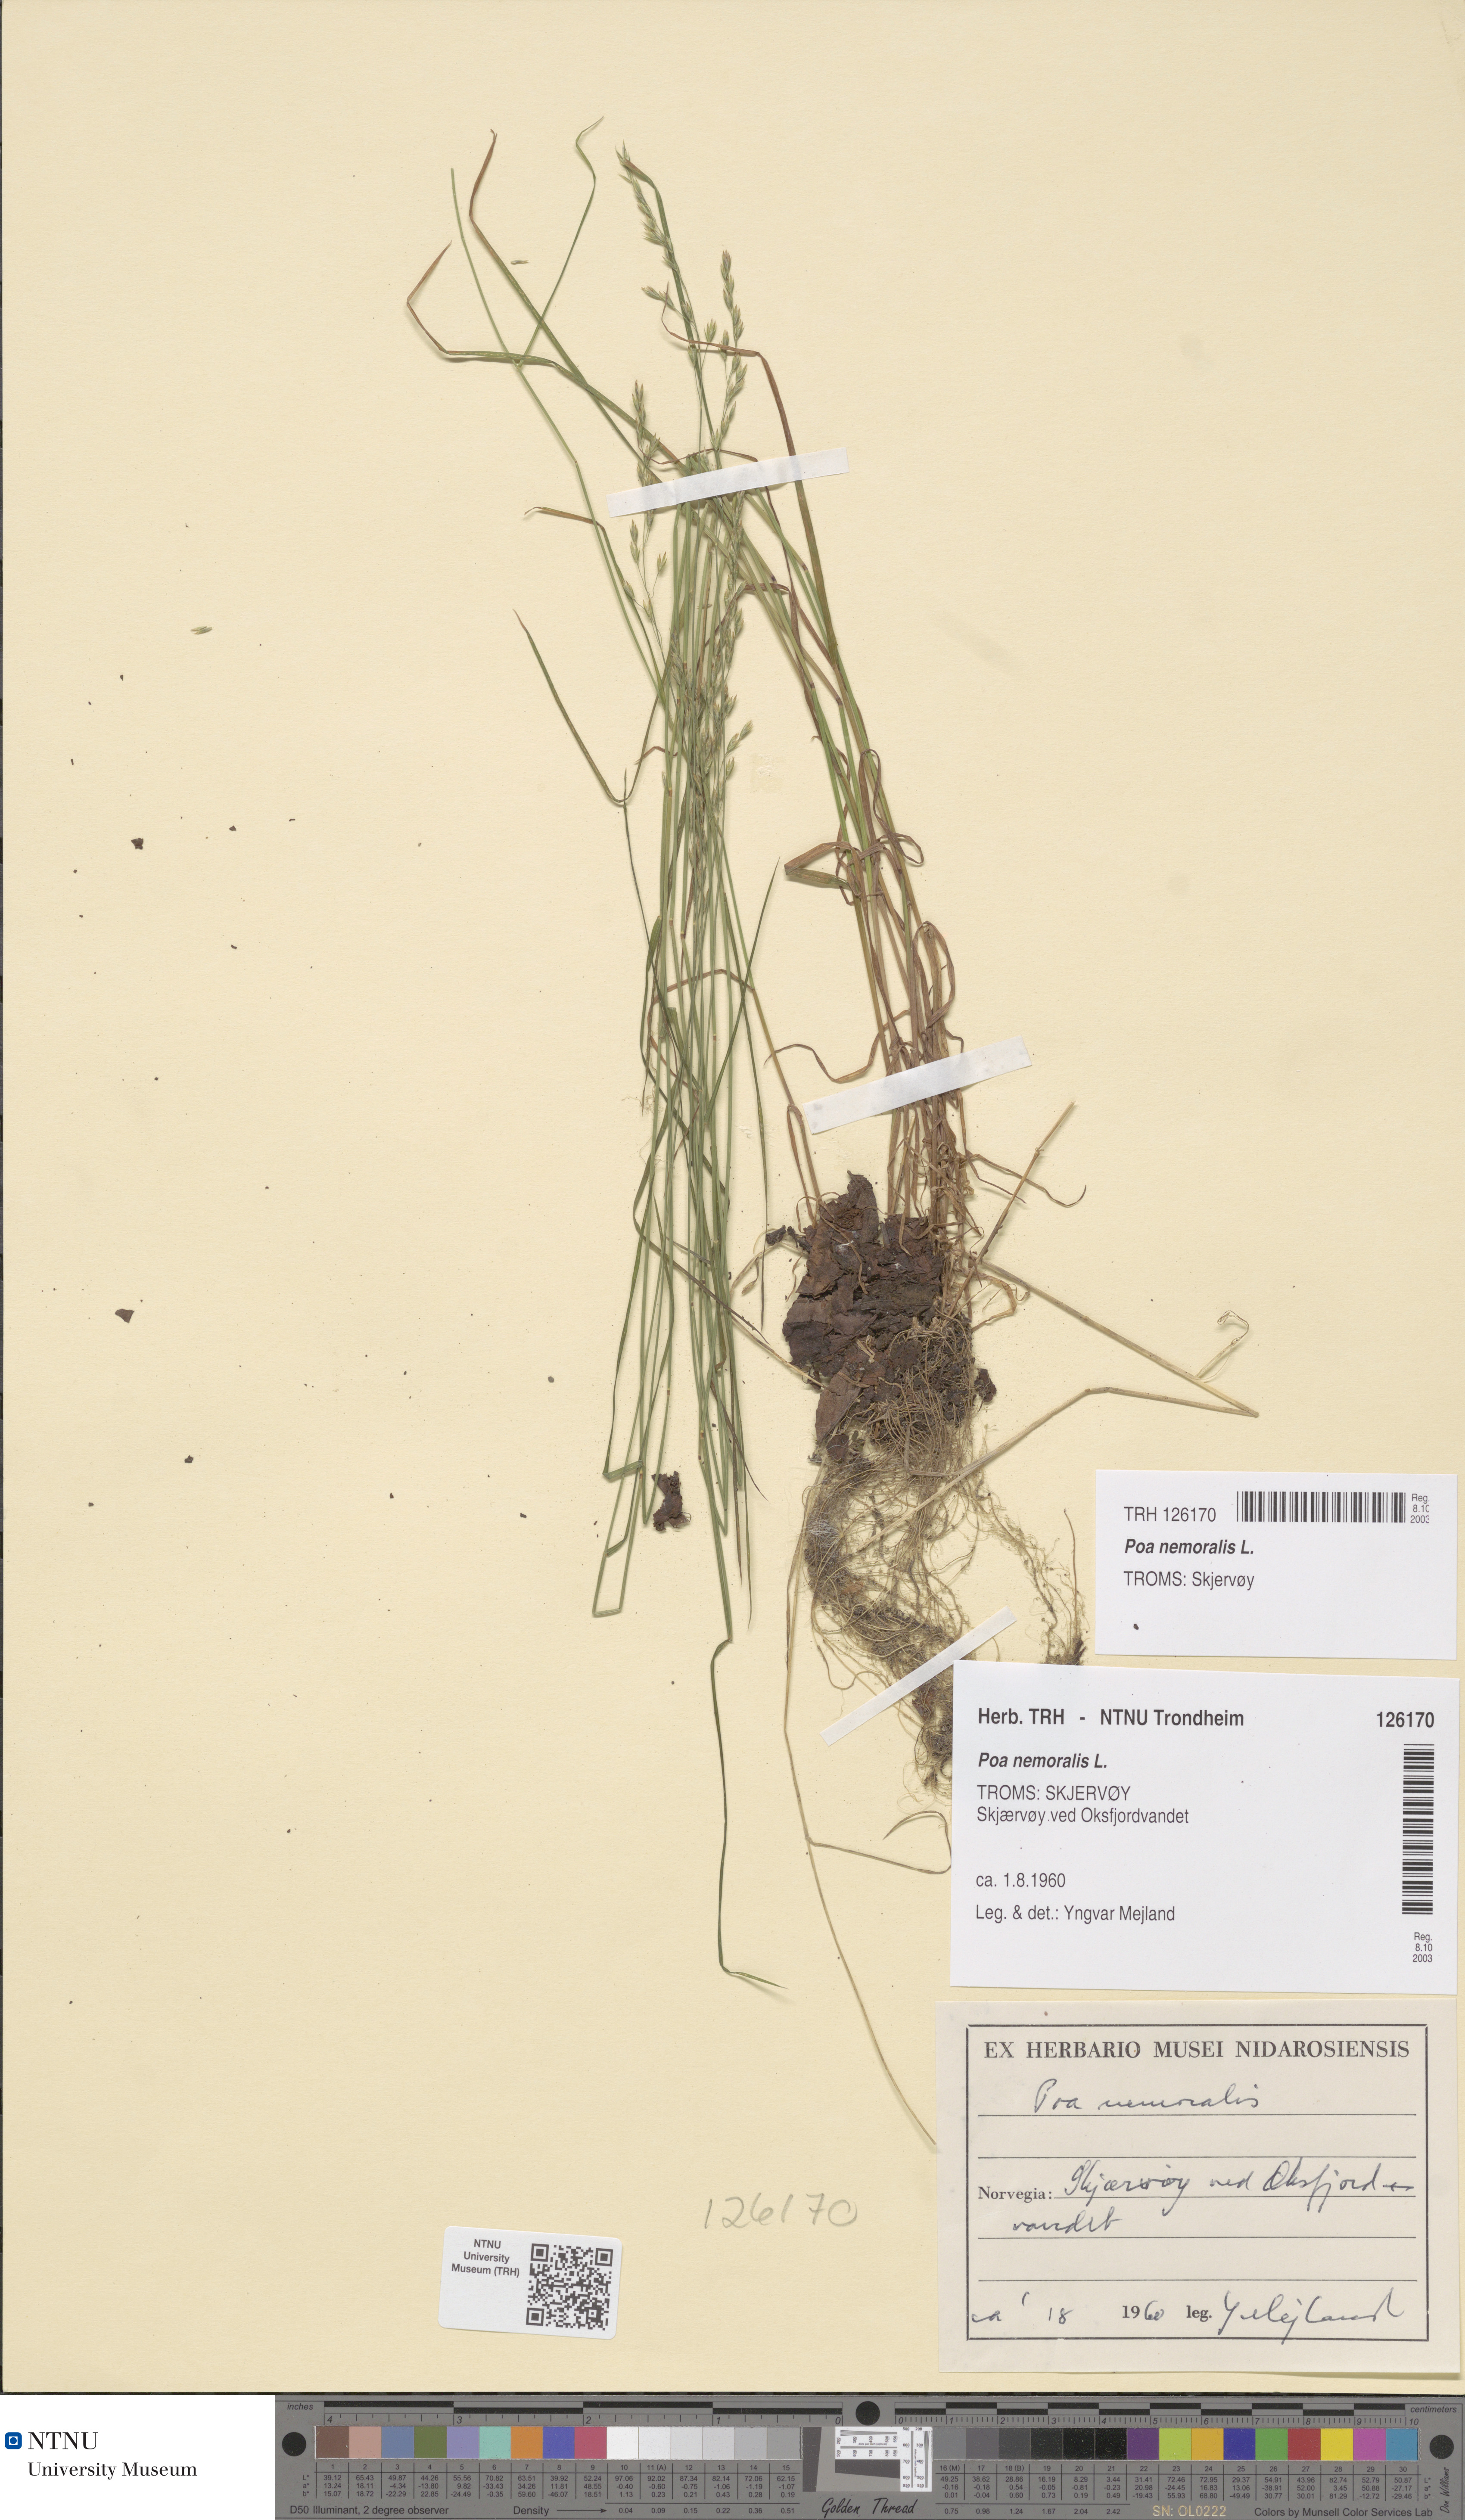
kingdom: Plantae
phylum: Tracheophyta
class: Liliopsida
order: Poales
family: Poaceae
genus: Poa
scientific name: Poa nemoralis
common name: Wood bluegrass
